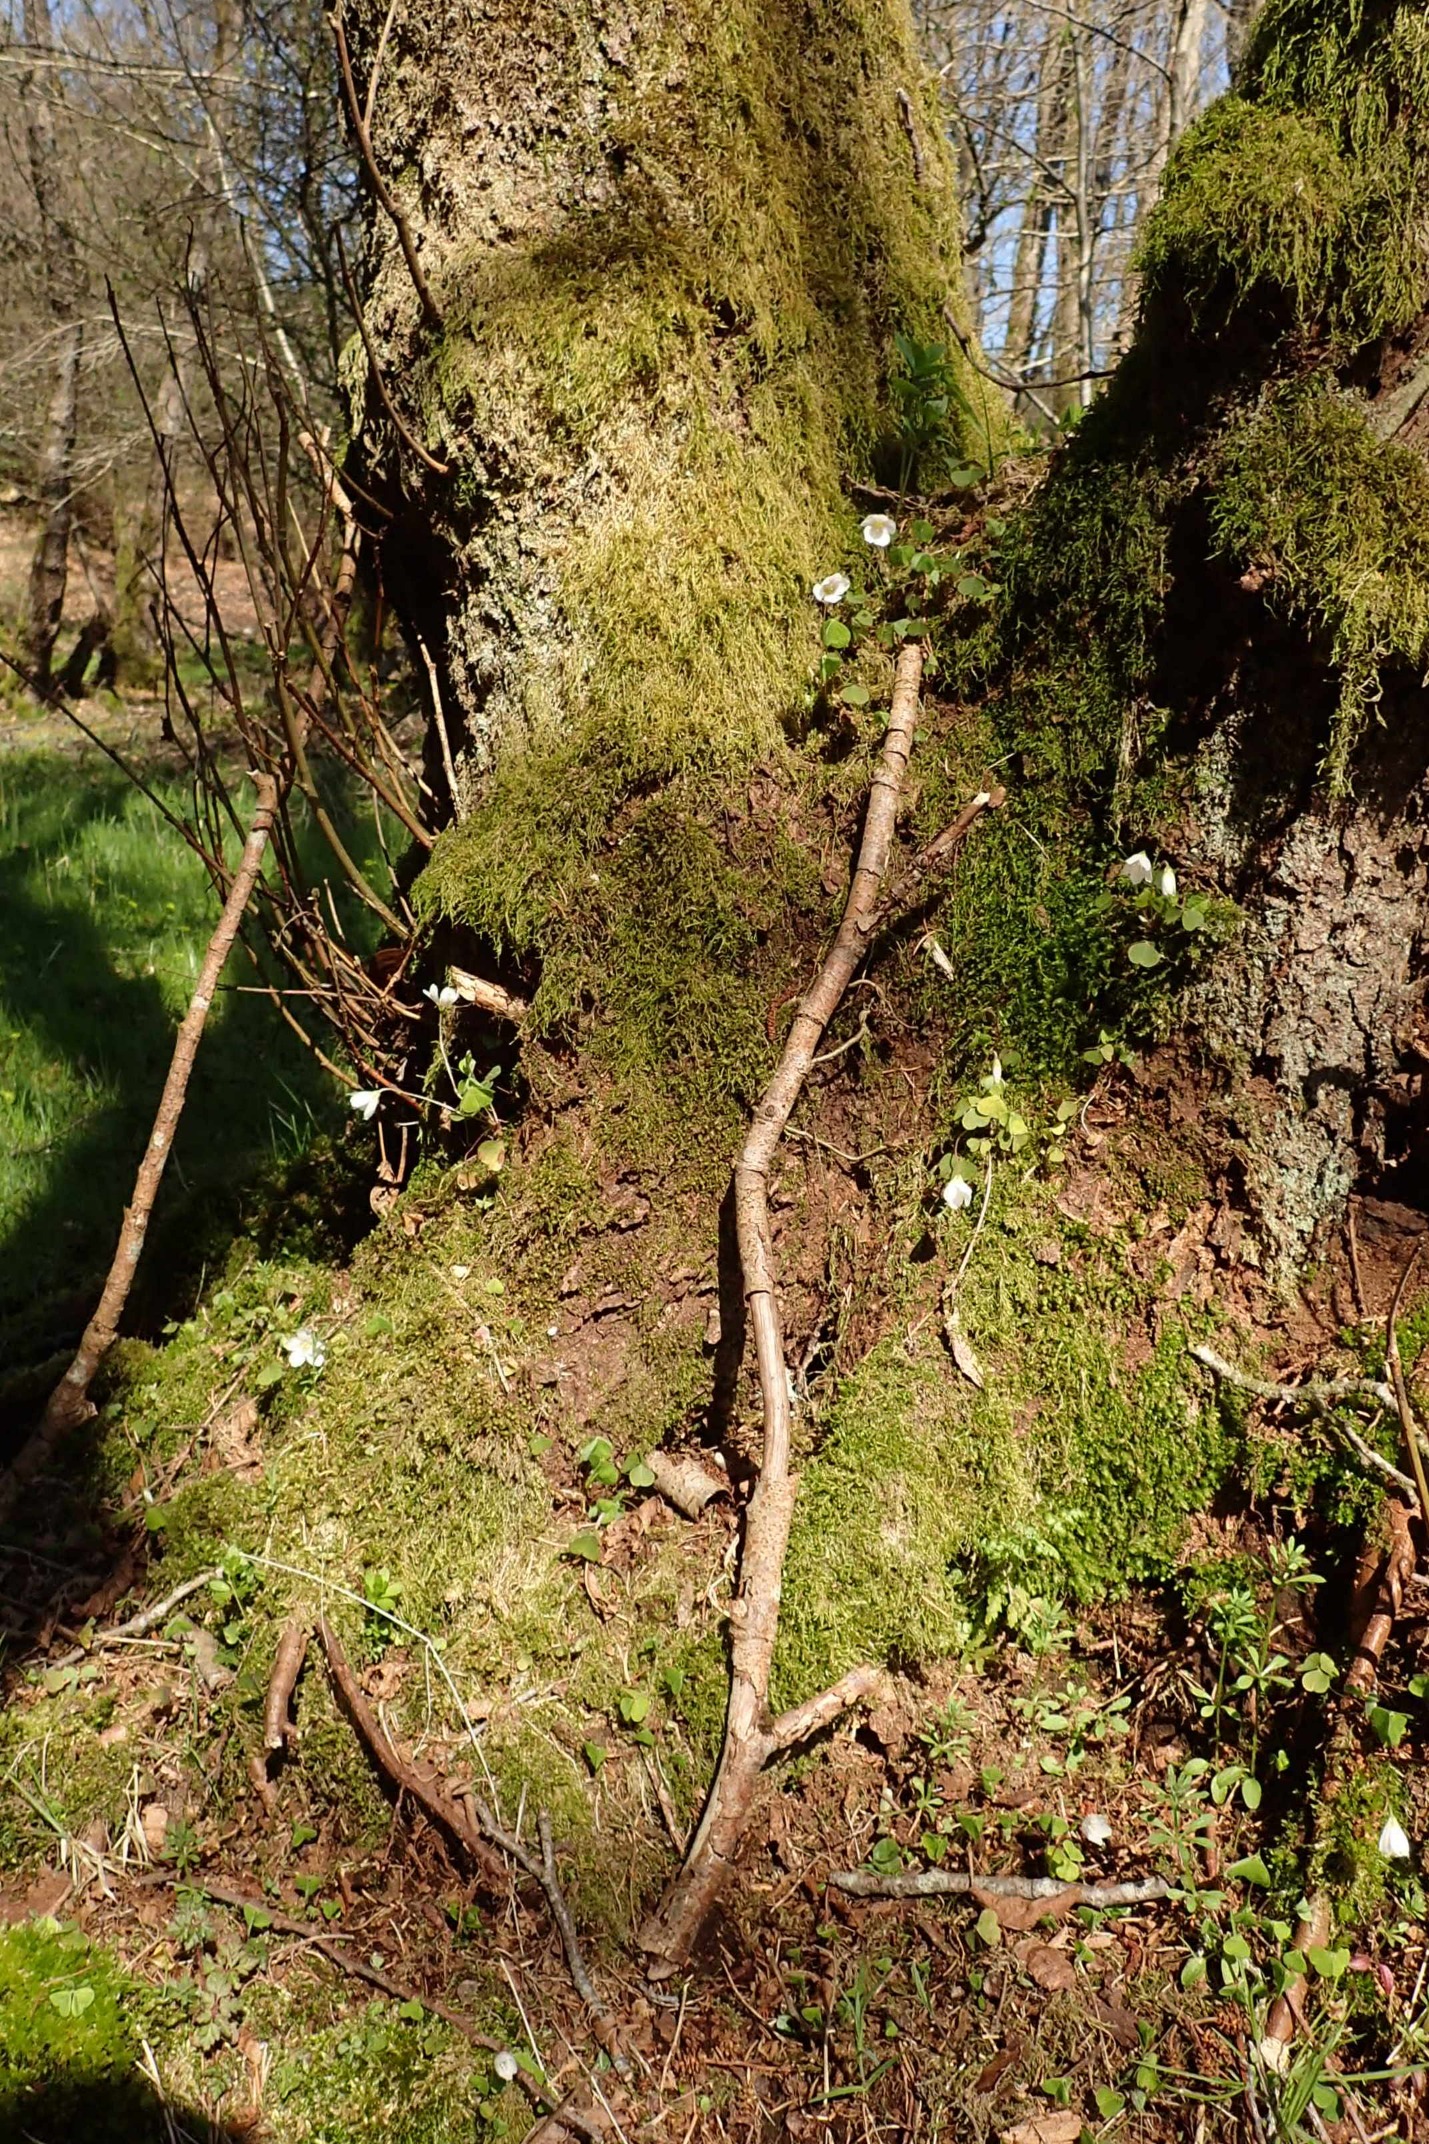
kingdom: Plantae
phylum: Tracheophyta
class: Magnoliopsida
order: Oxalidales
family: Oxalidaceae
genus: Oxalis
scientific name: Oxalis acetosella
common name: Skovsyre
